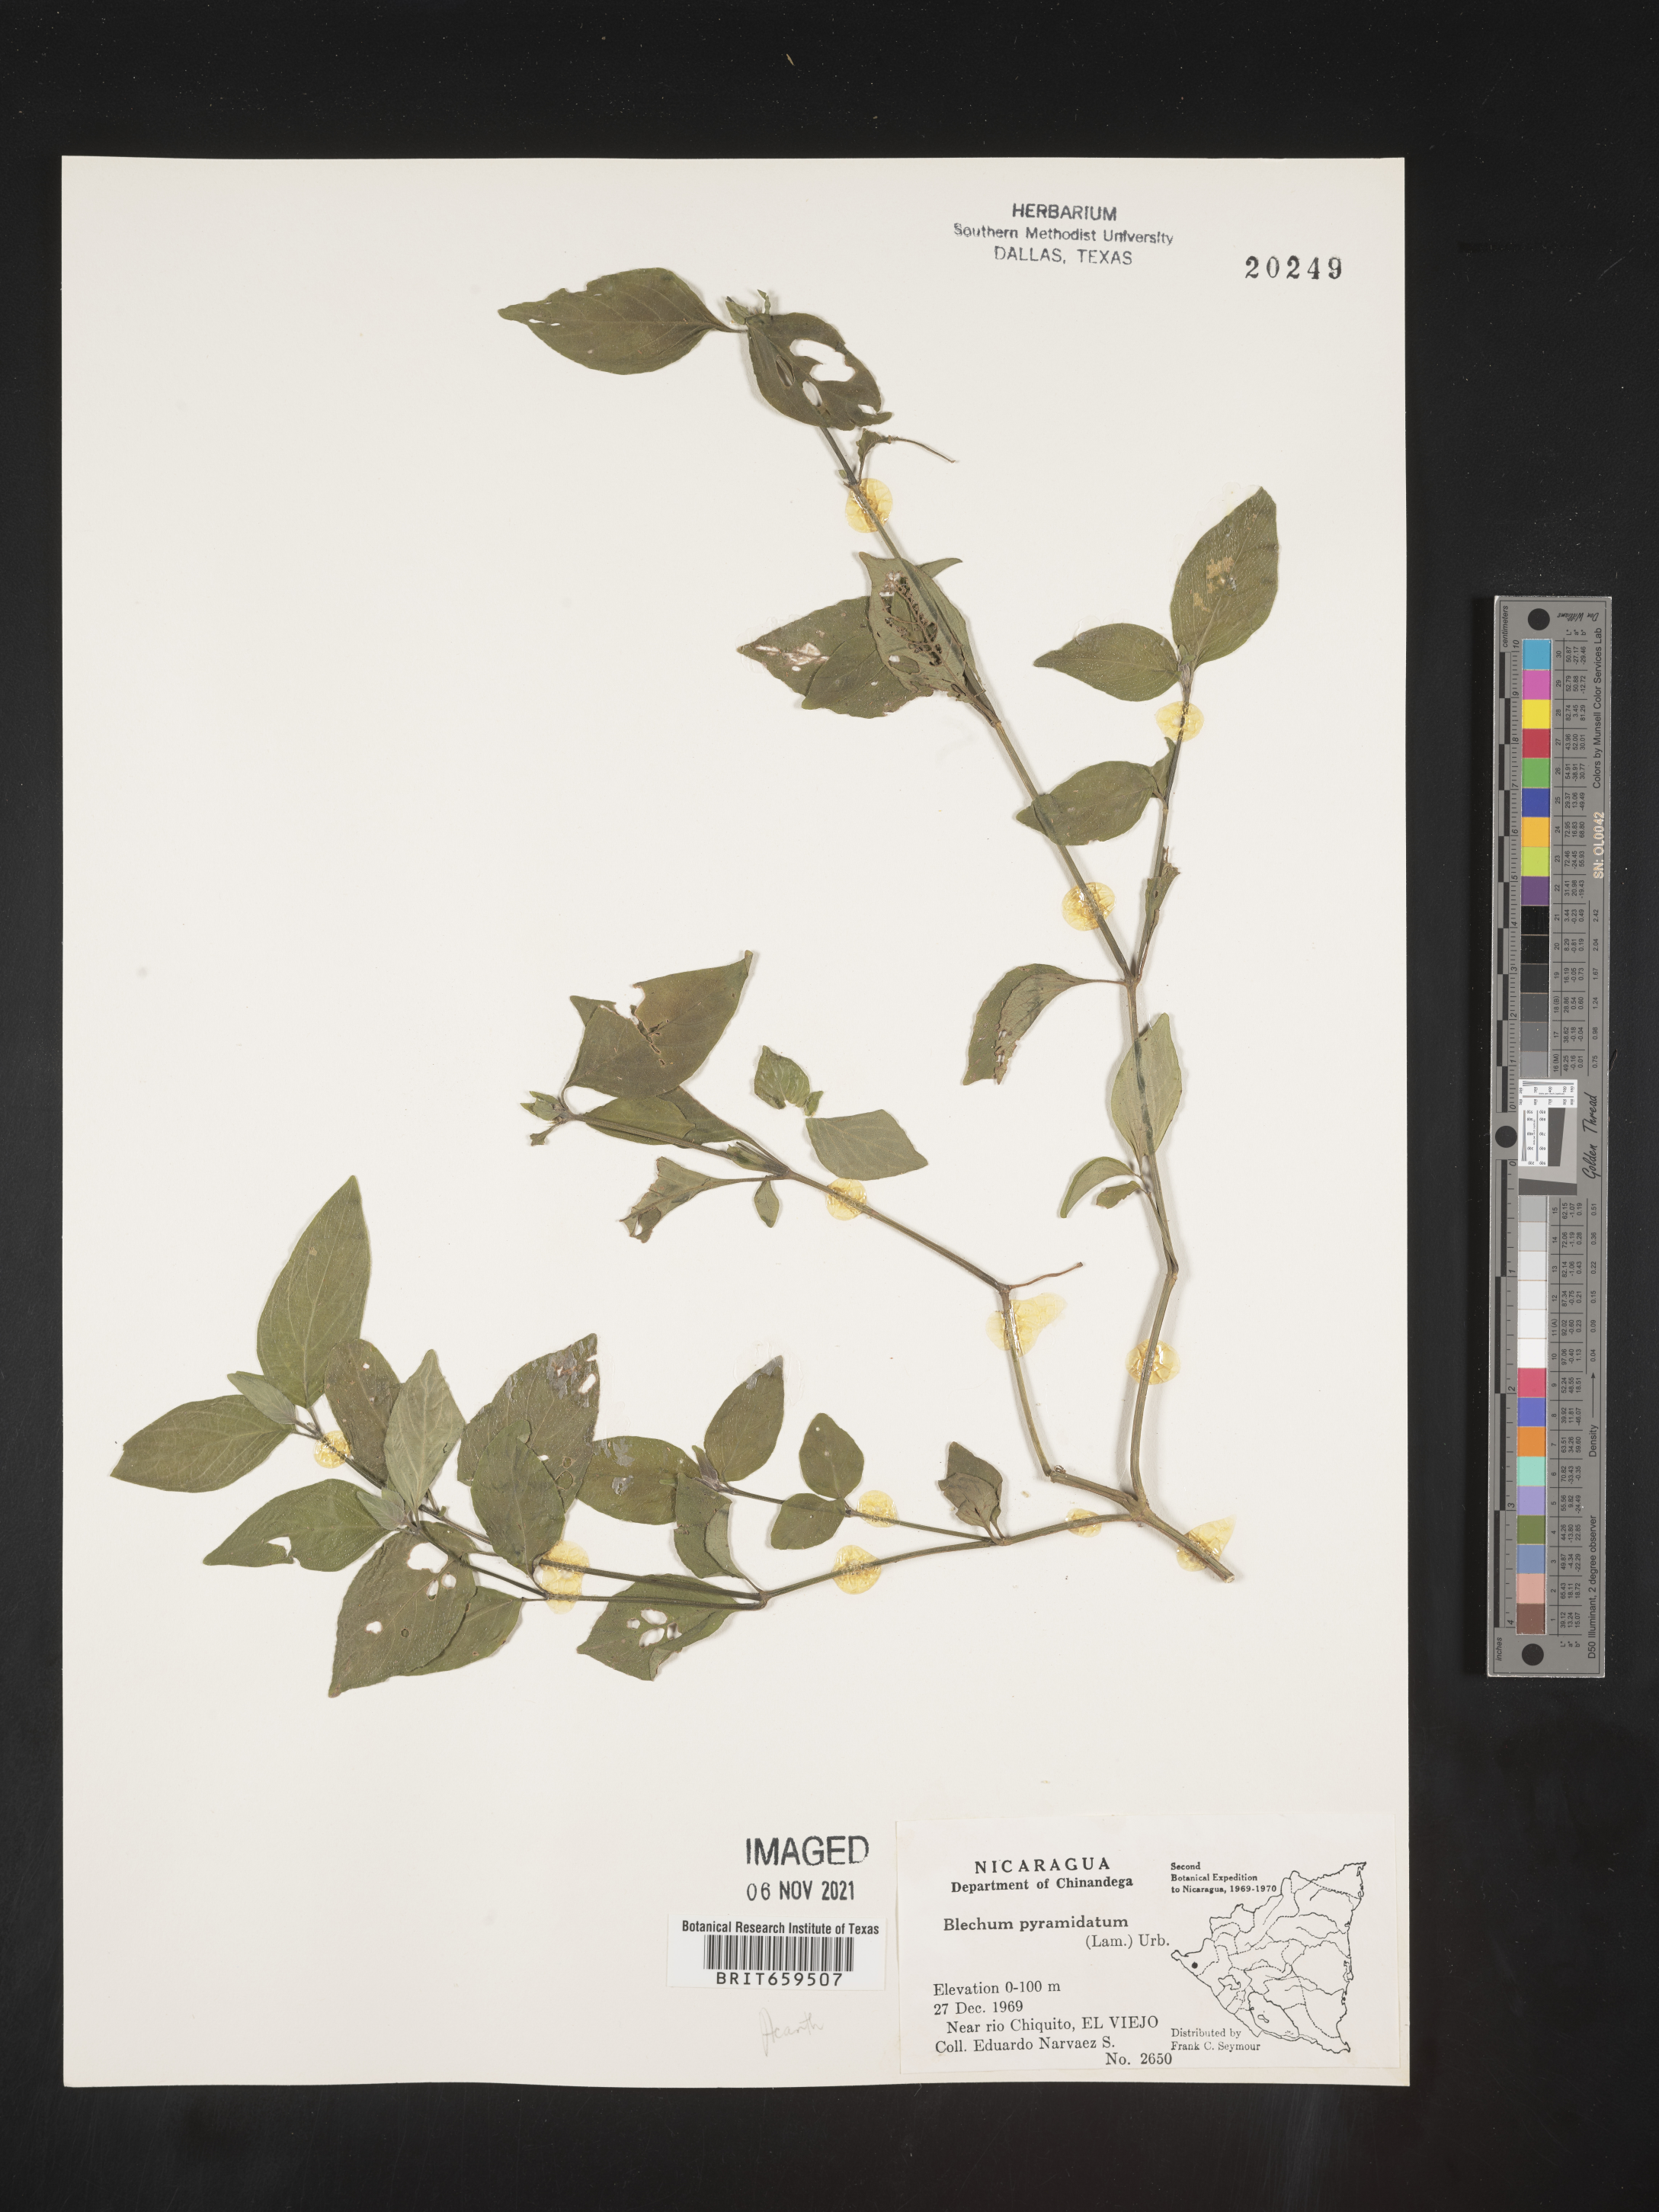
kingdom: Plantae
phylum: Tracheophyta
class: Polypodiopsida
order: Polypodiales
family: Blechnaceae
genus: Blechum
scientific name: Blechum
